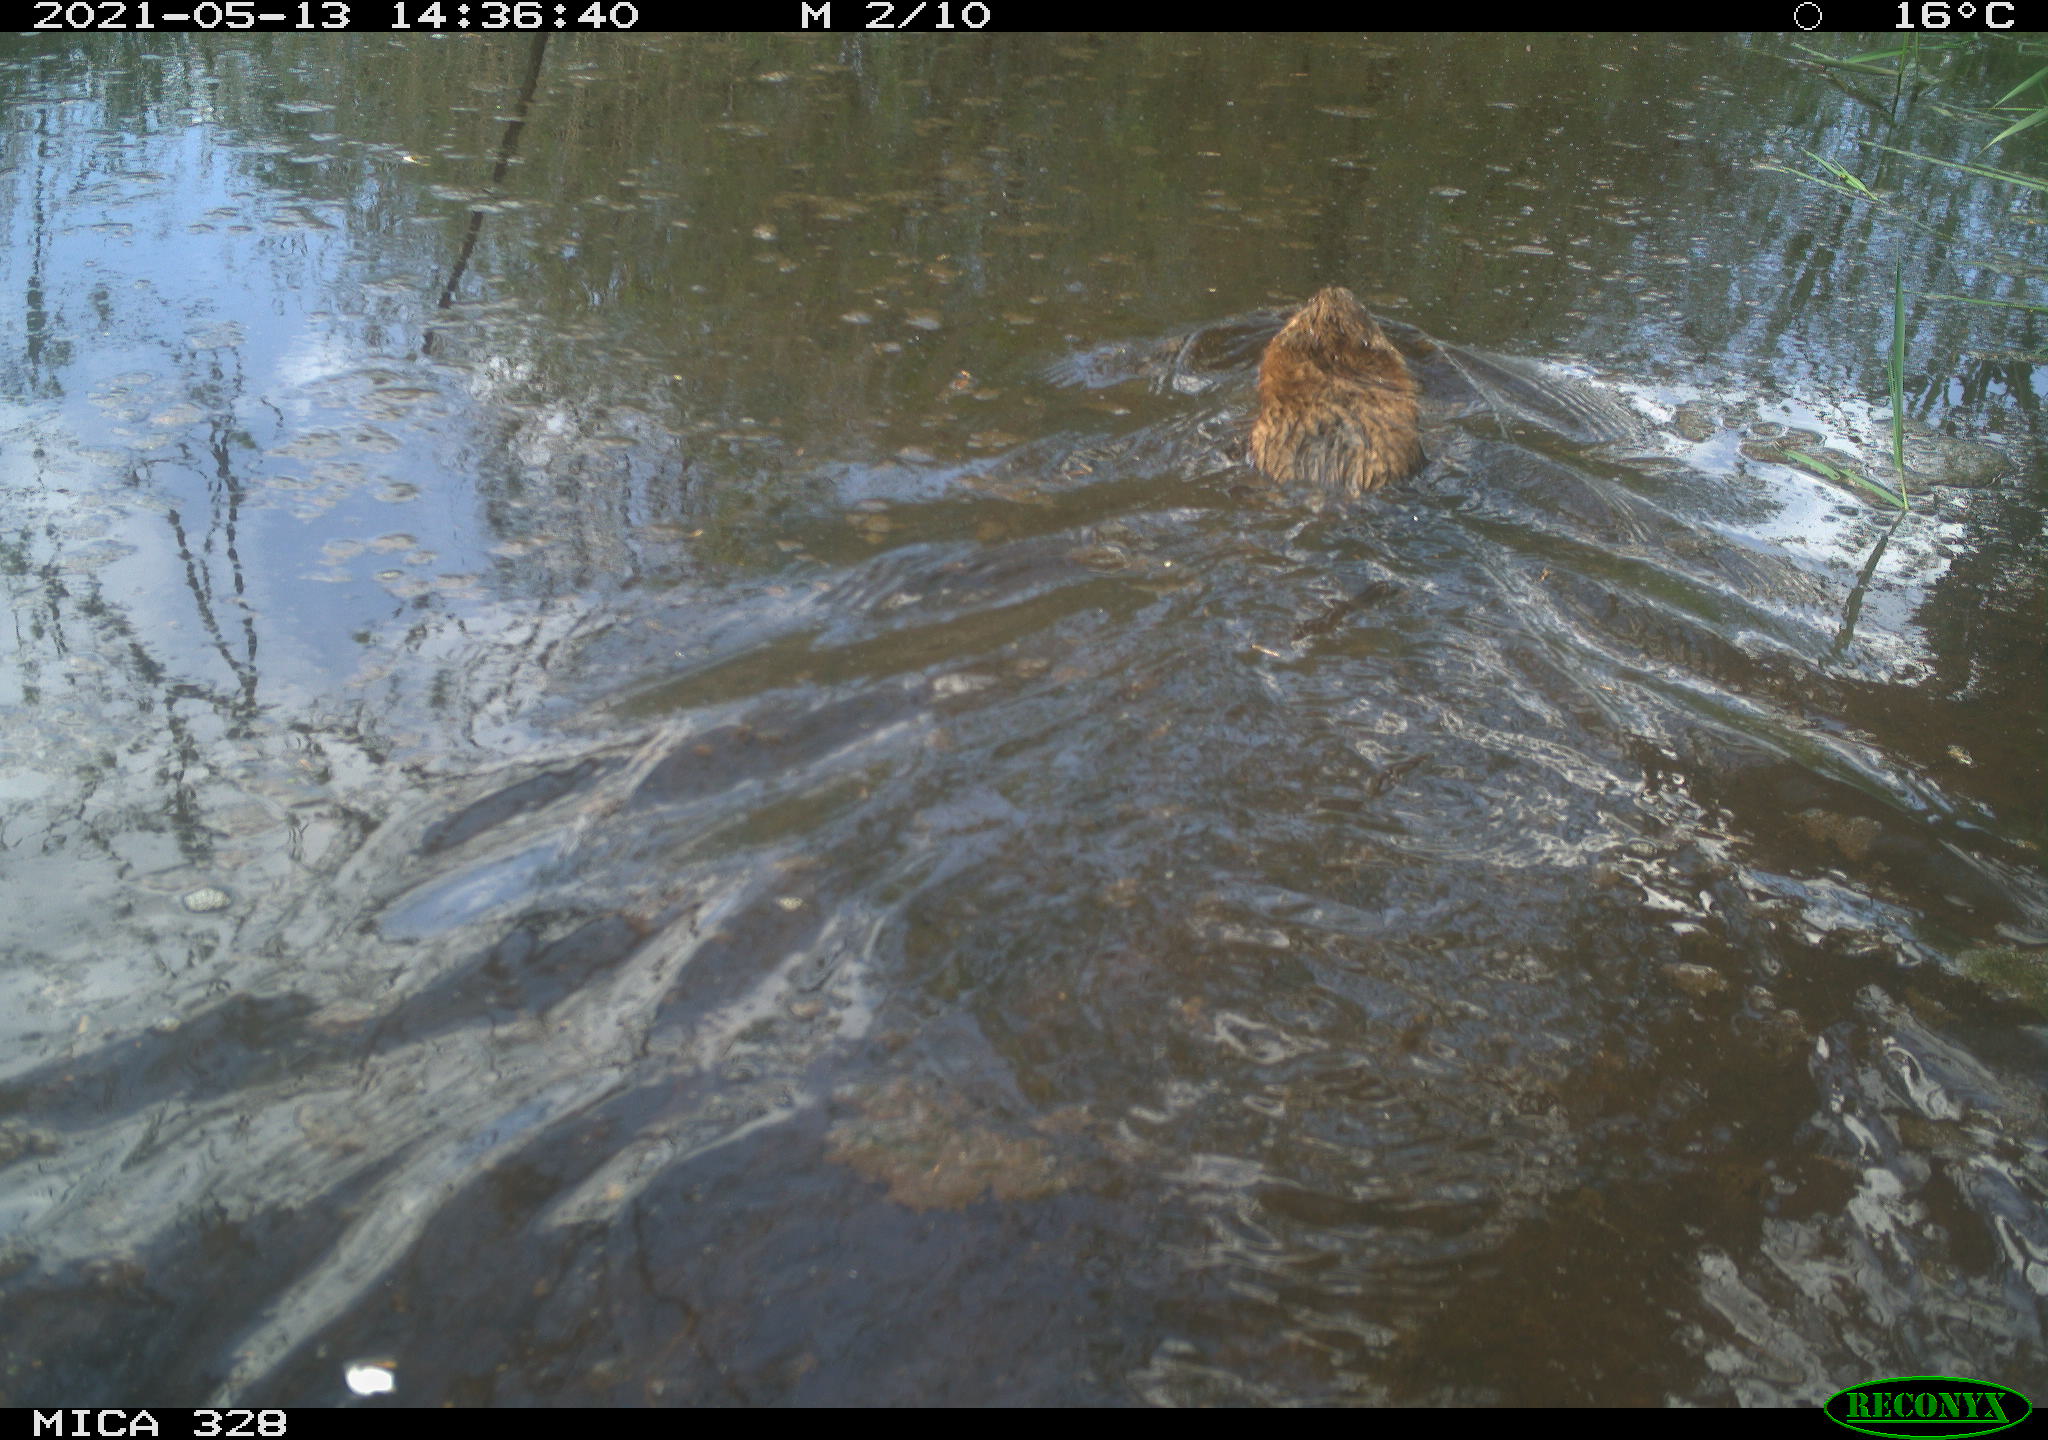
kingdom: Animalia
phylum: Chordata
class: Mammalia
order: Rodentia
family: Cricetidae
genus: Ondatra
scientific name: Ondatra zibethicus
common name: Muskrat
